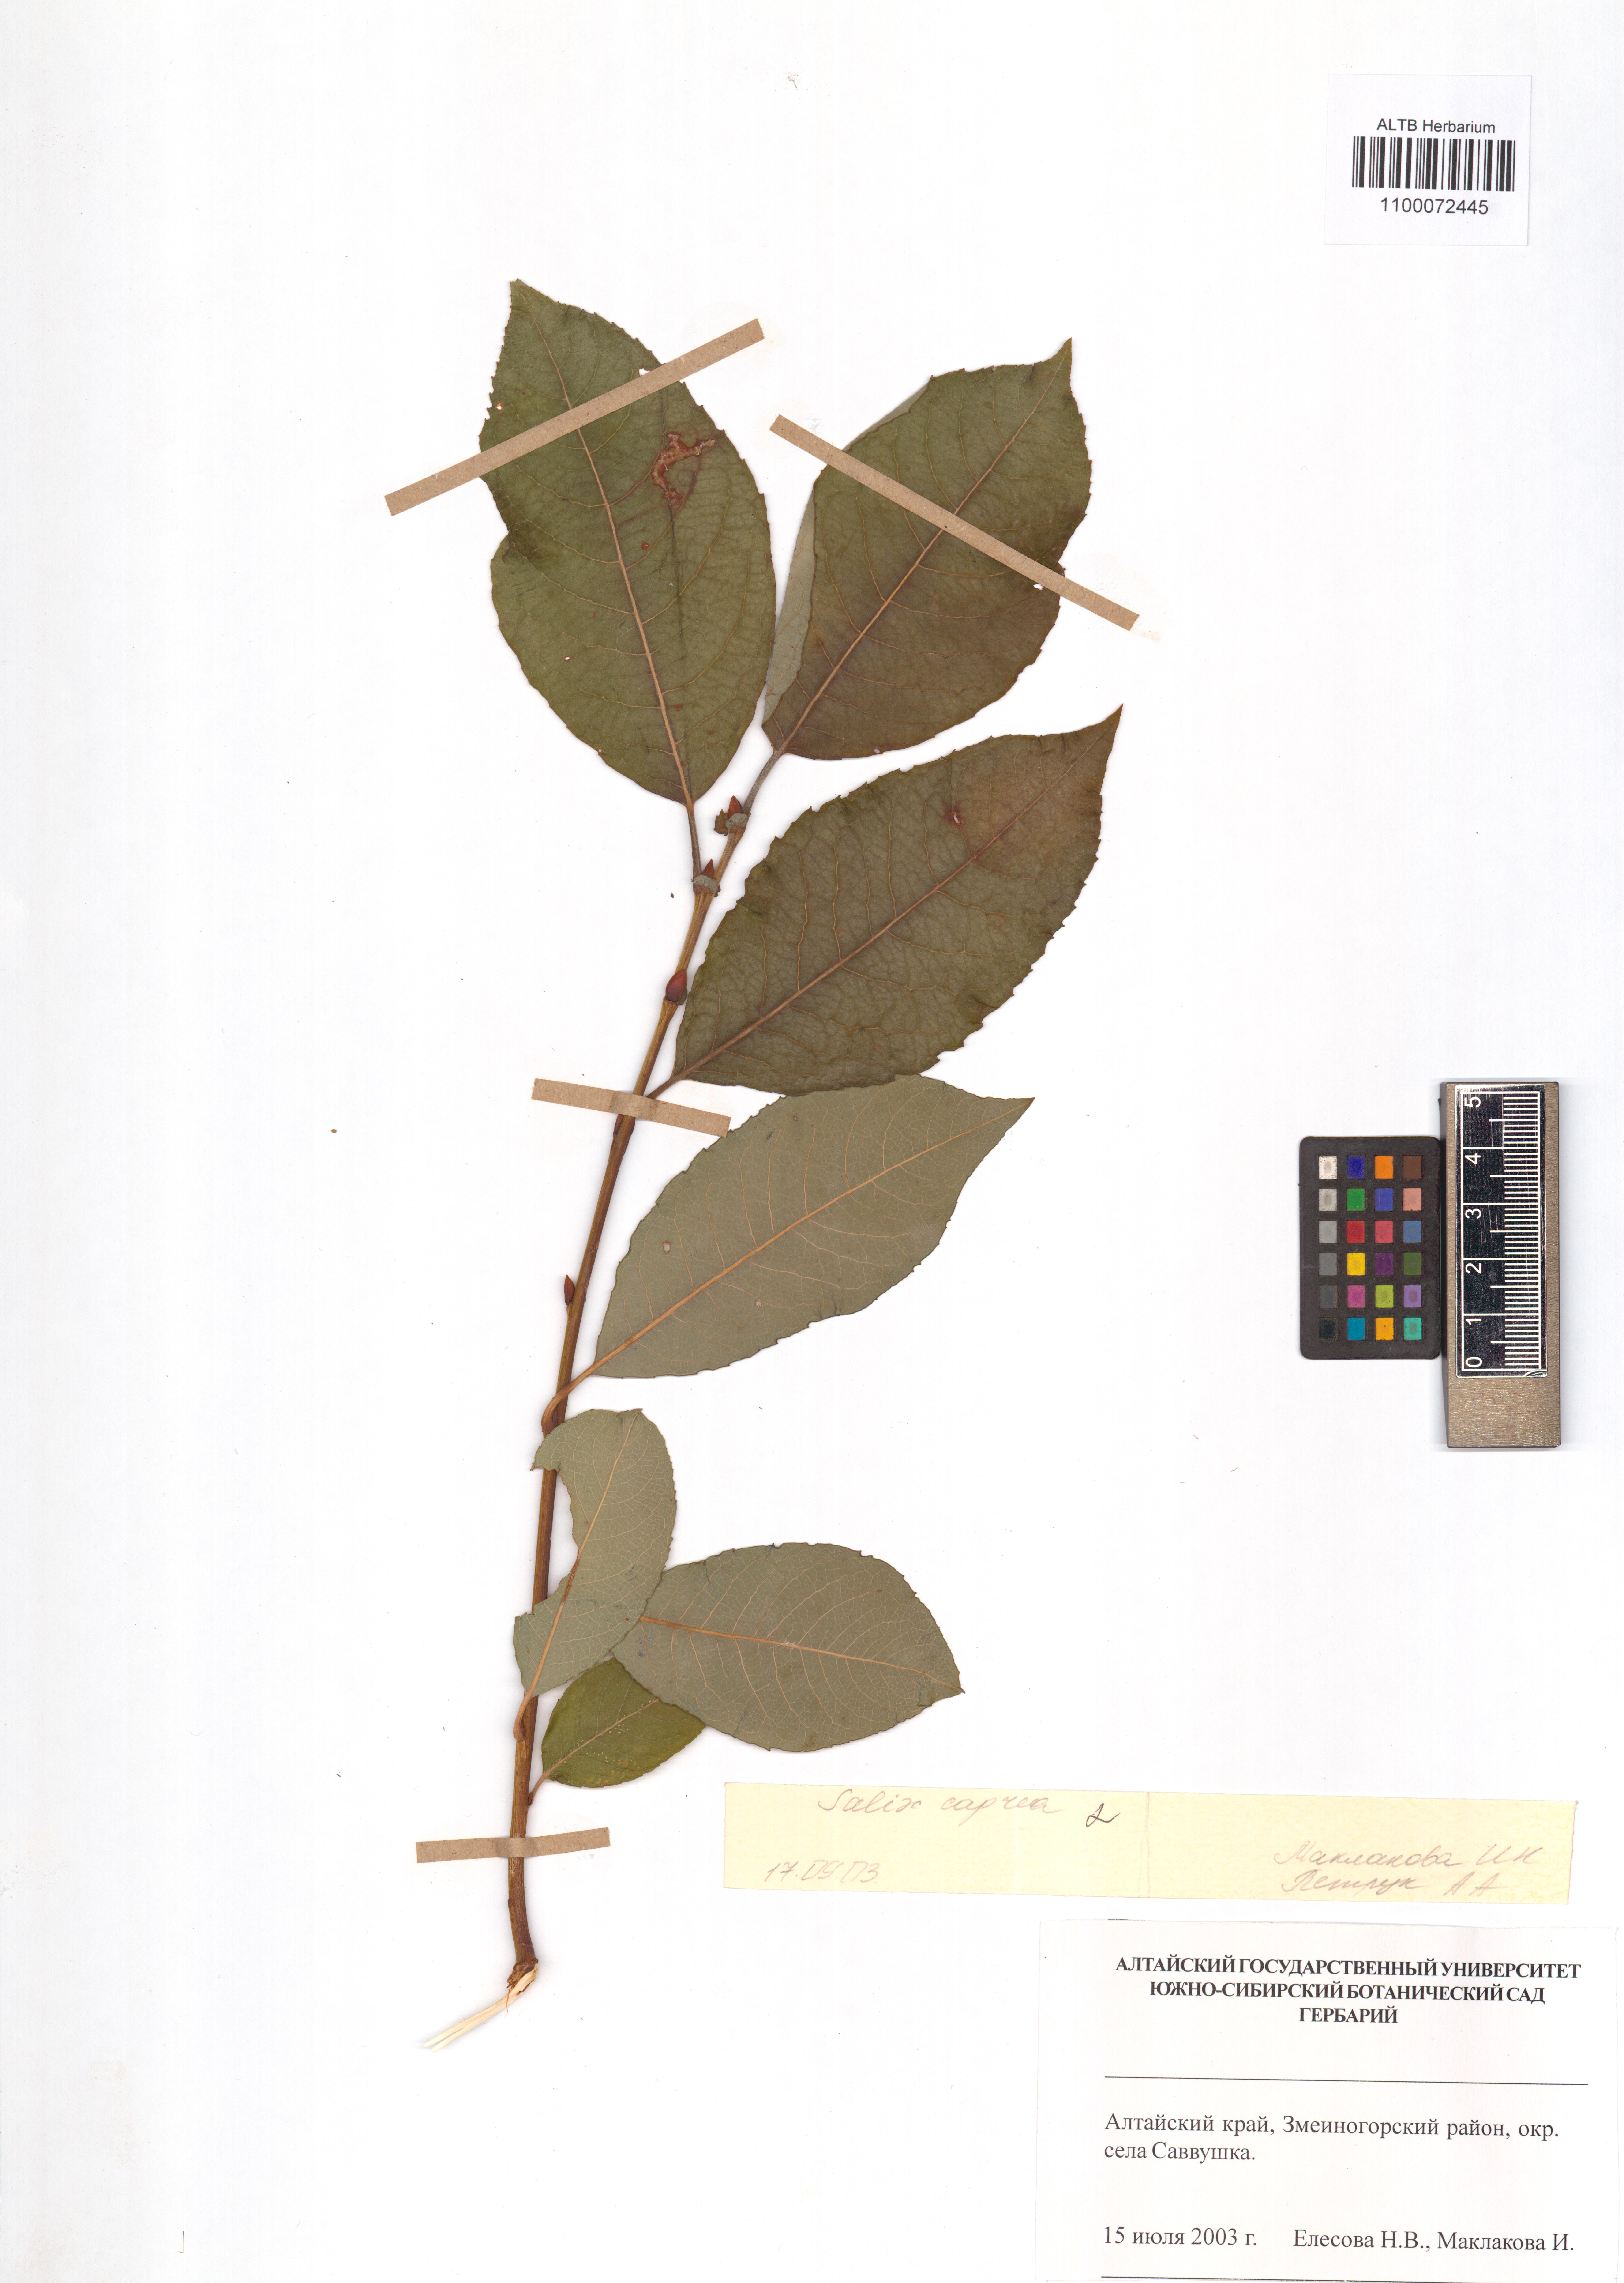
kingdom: Plantae
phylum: Tracheophyta
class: Magnoliopsida
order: Malpighiales
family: Salicaceae
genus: Salix
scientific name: Salix caprea
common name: Goat willow
